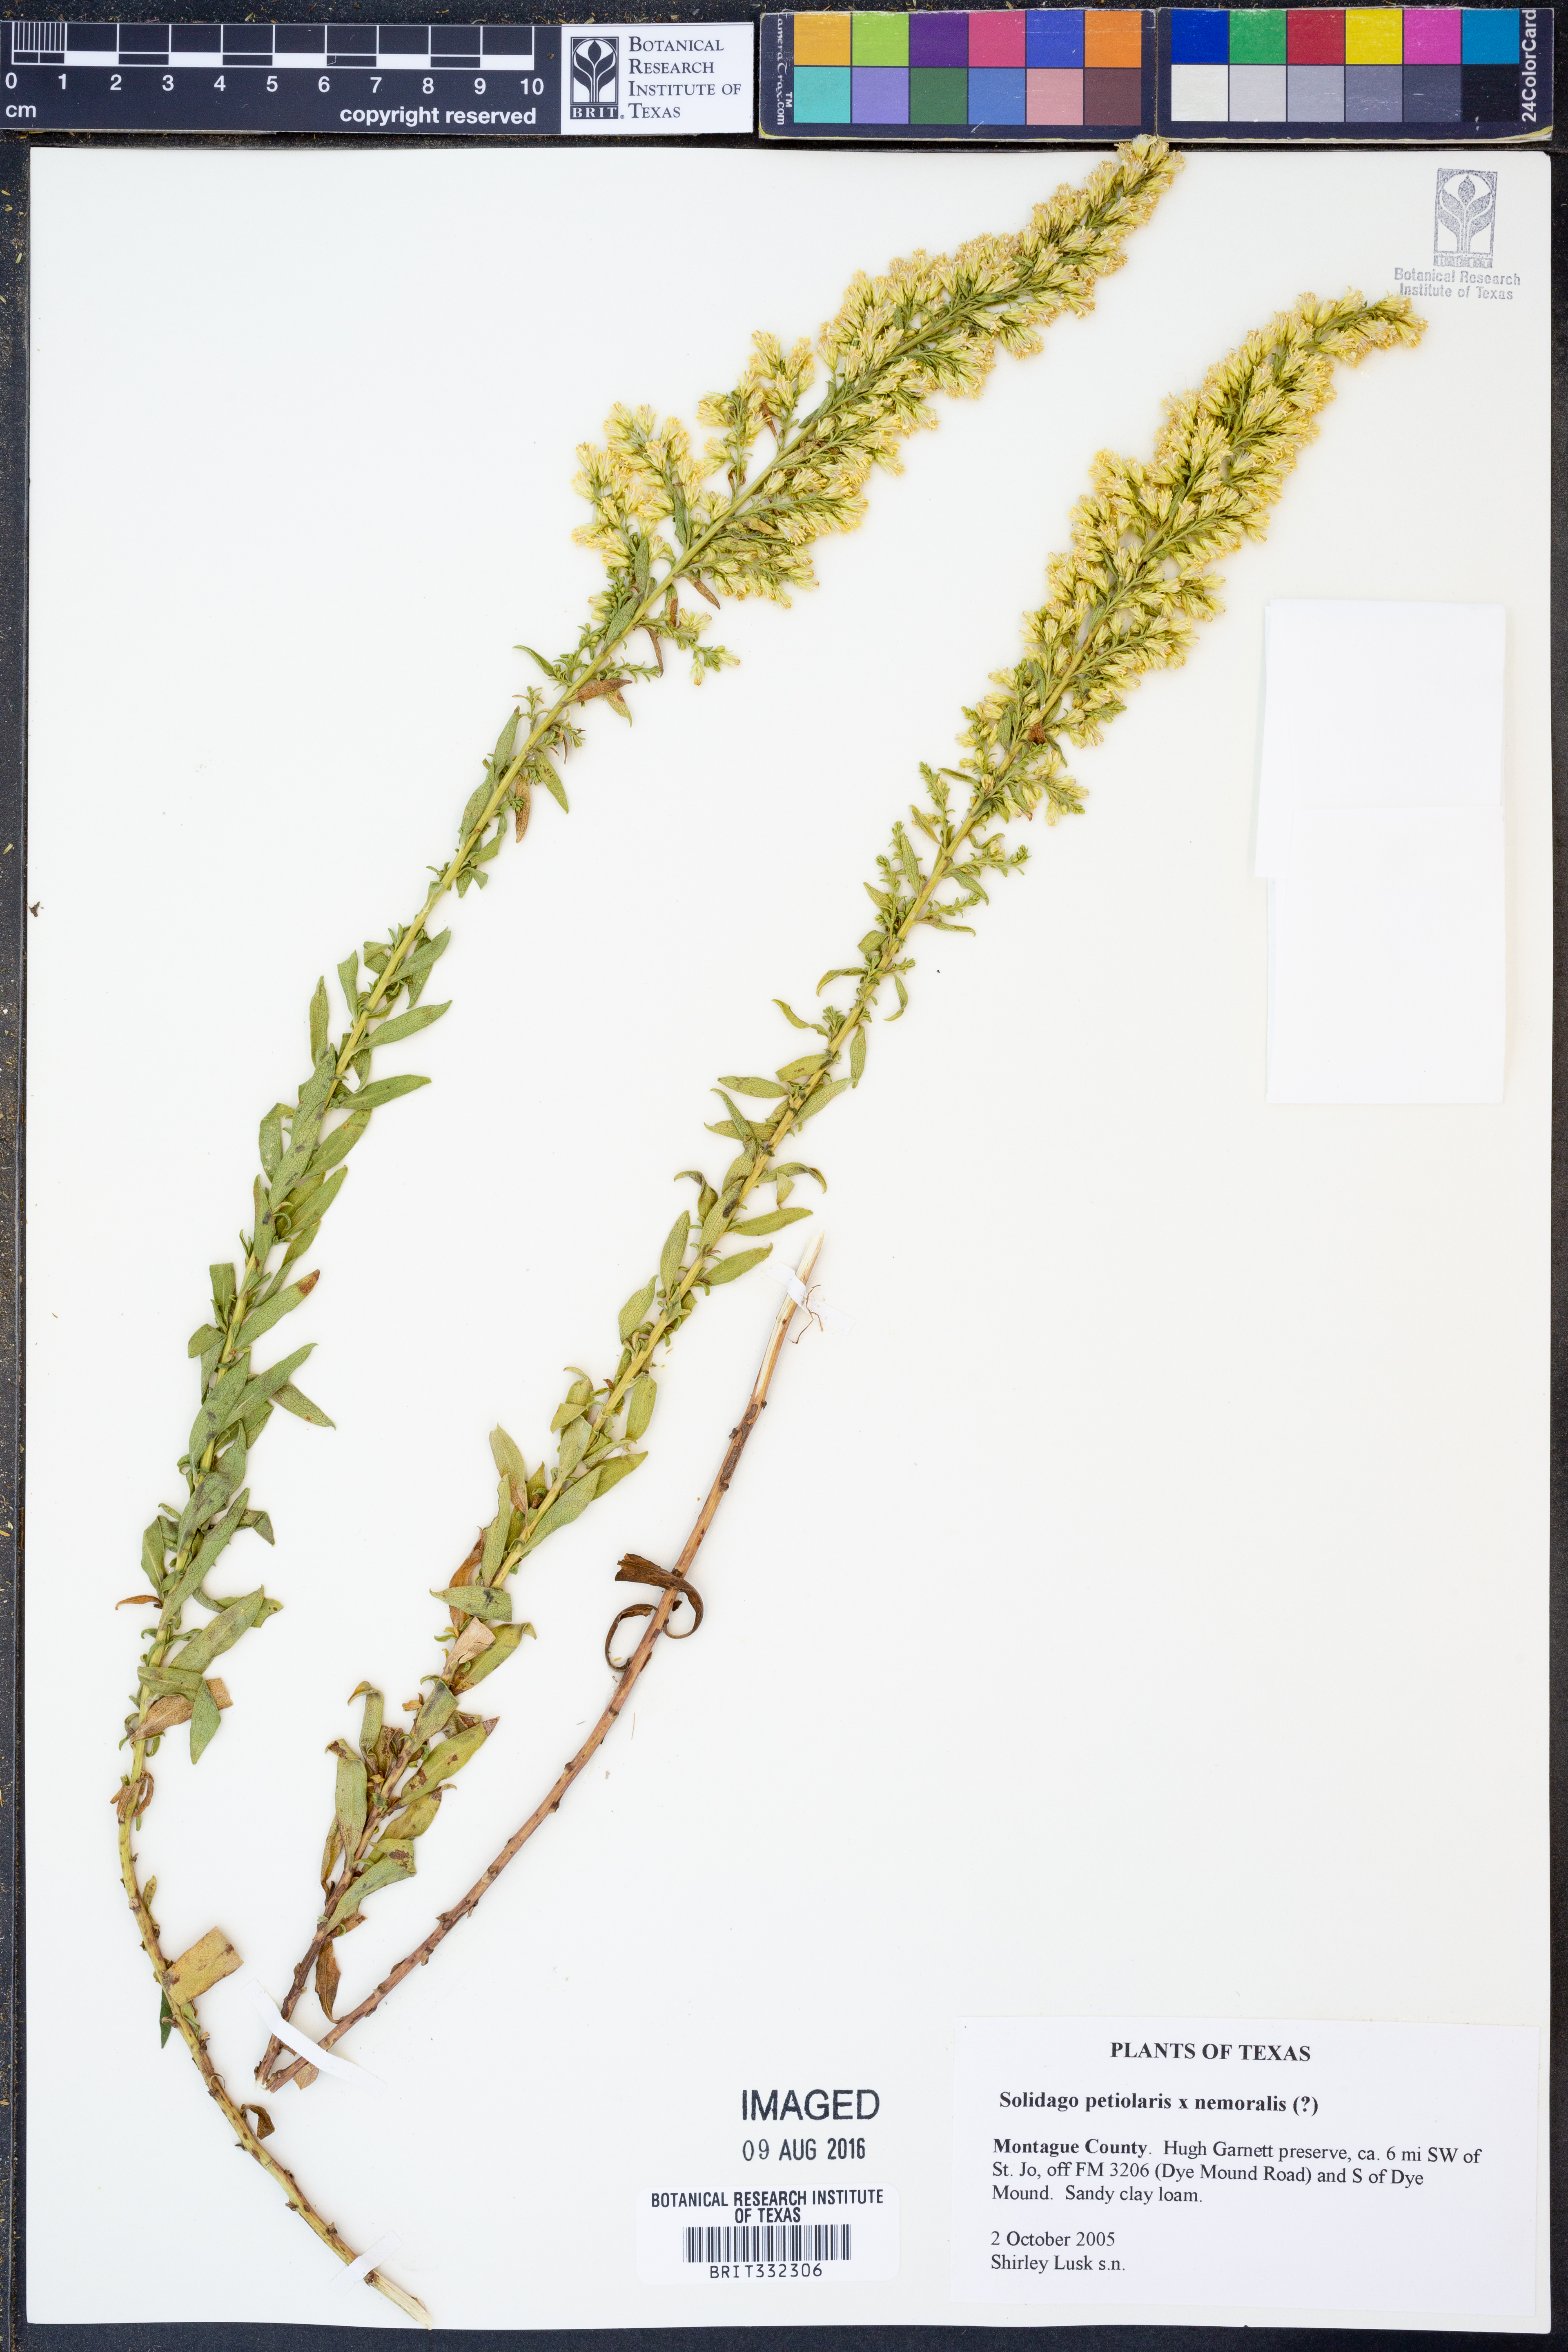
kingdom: Plantae
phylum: Tracheophyta
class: Magnoliopsida
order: Asterales
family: Asteraceae
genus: Solidago
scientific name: Solidago petiolaris
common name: Downy ragged goldenrod
